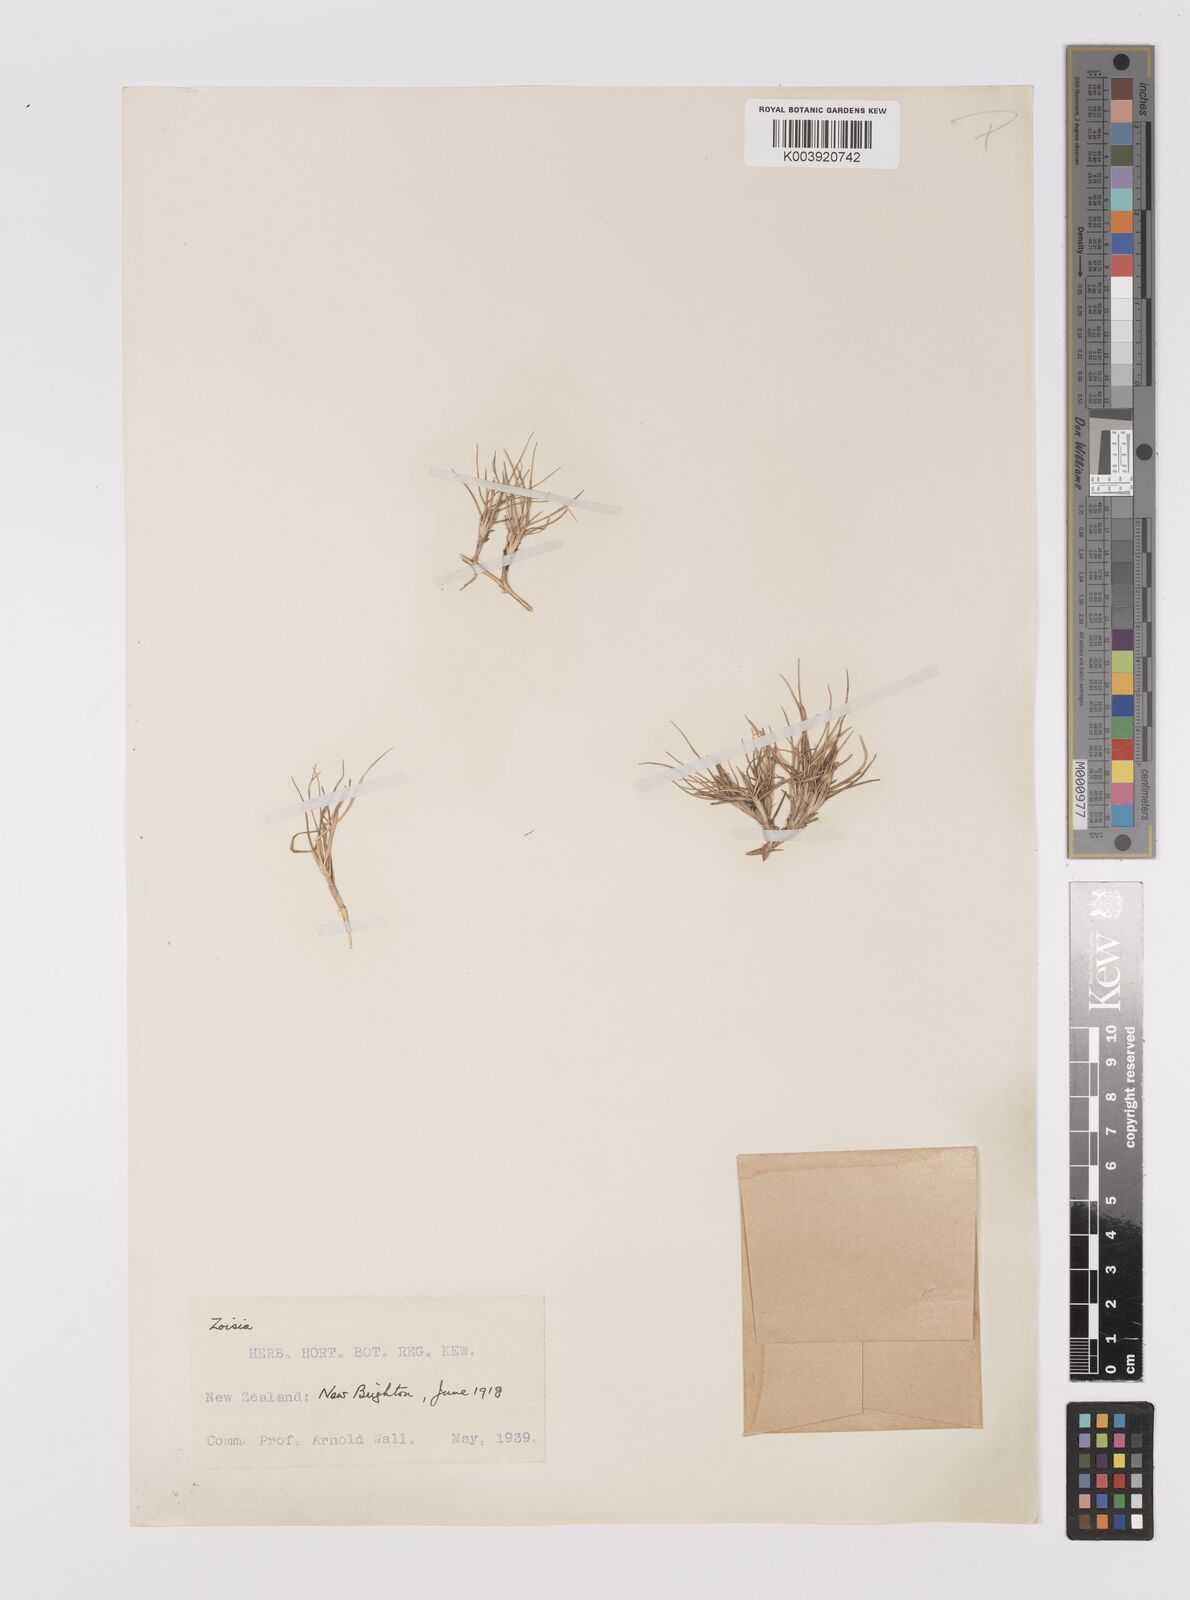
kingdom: Plantae
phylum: Tracheophyta
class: Liliopsida
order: Poales
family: Poaceae
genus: Zoysia
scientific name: Zoysia minima
